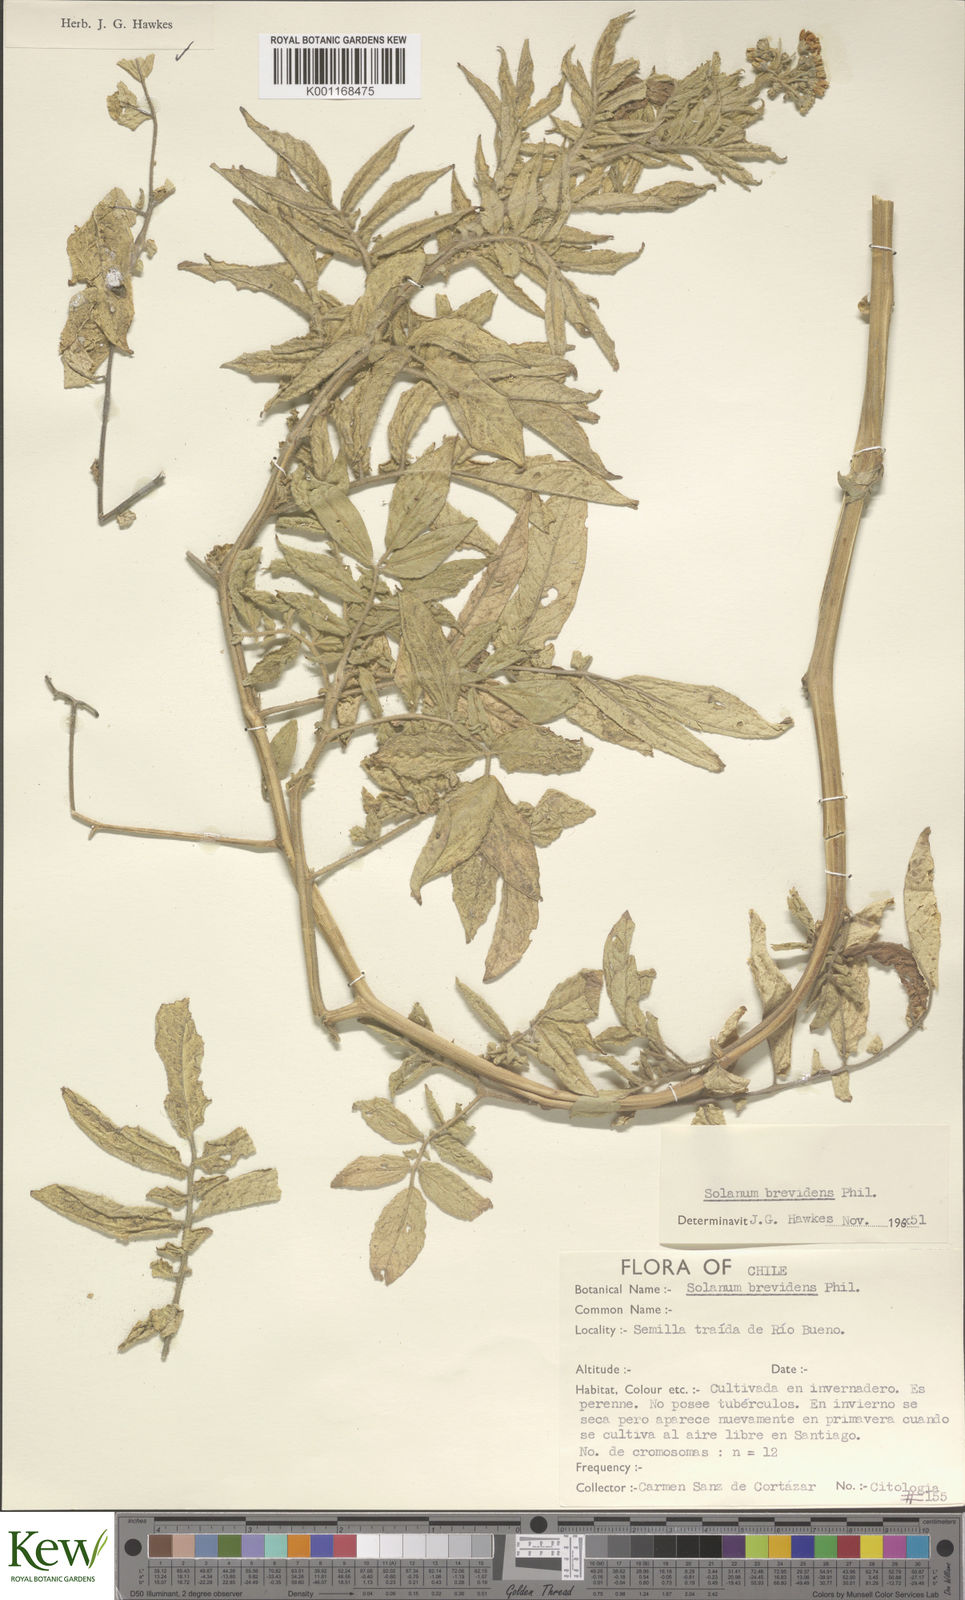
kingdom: Plantae
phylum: Tracheophyta
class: Magnoliopsida
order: Solanales
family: Solanaceae
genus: Solanum
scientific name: Solanum palustre
